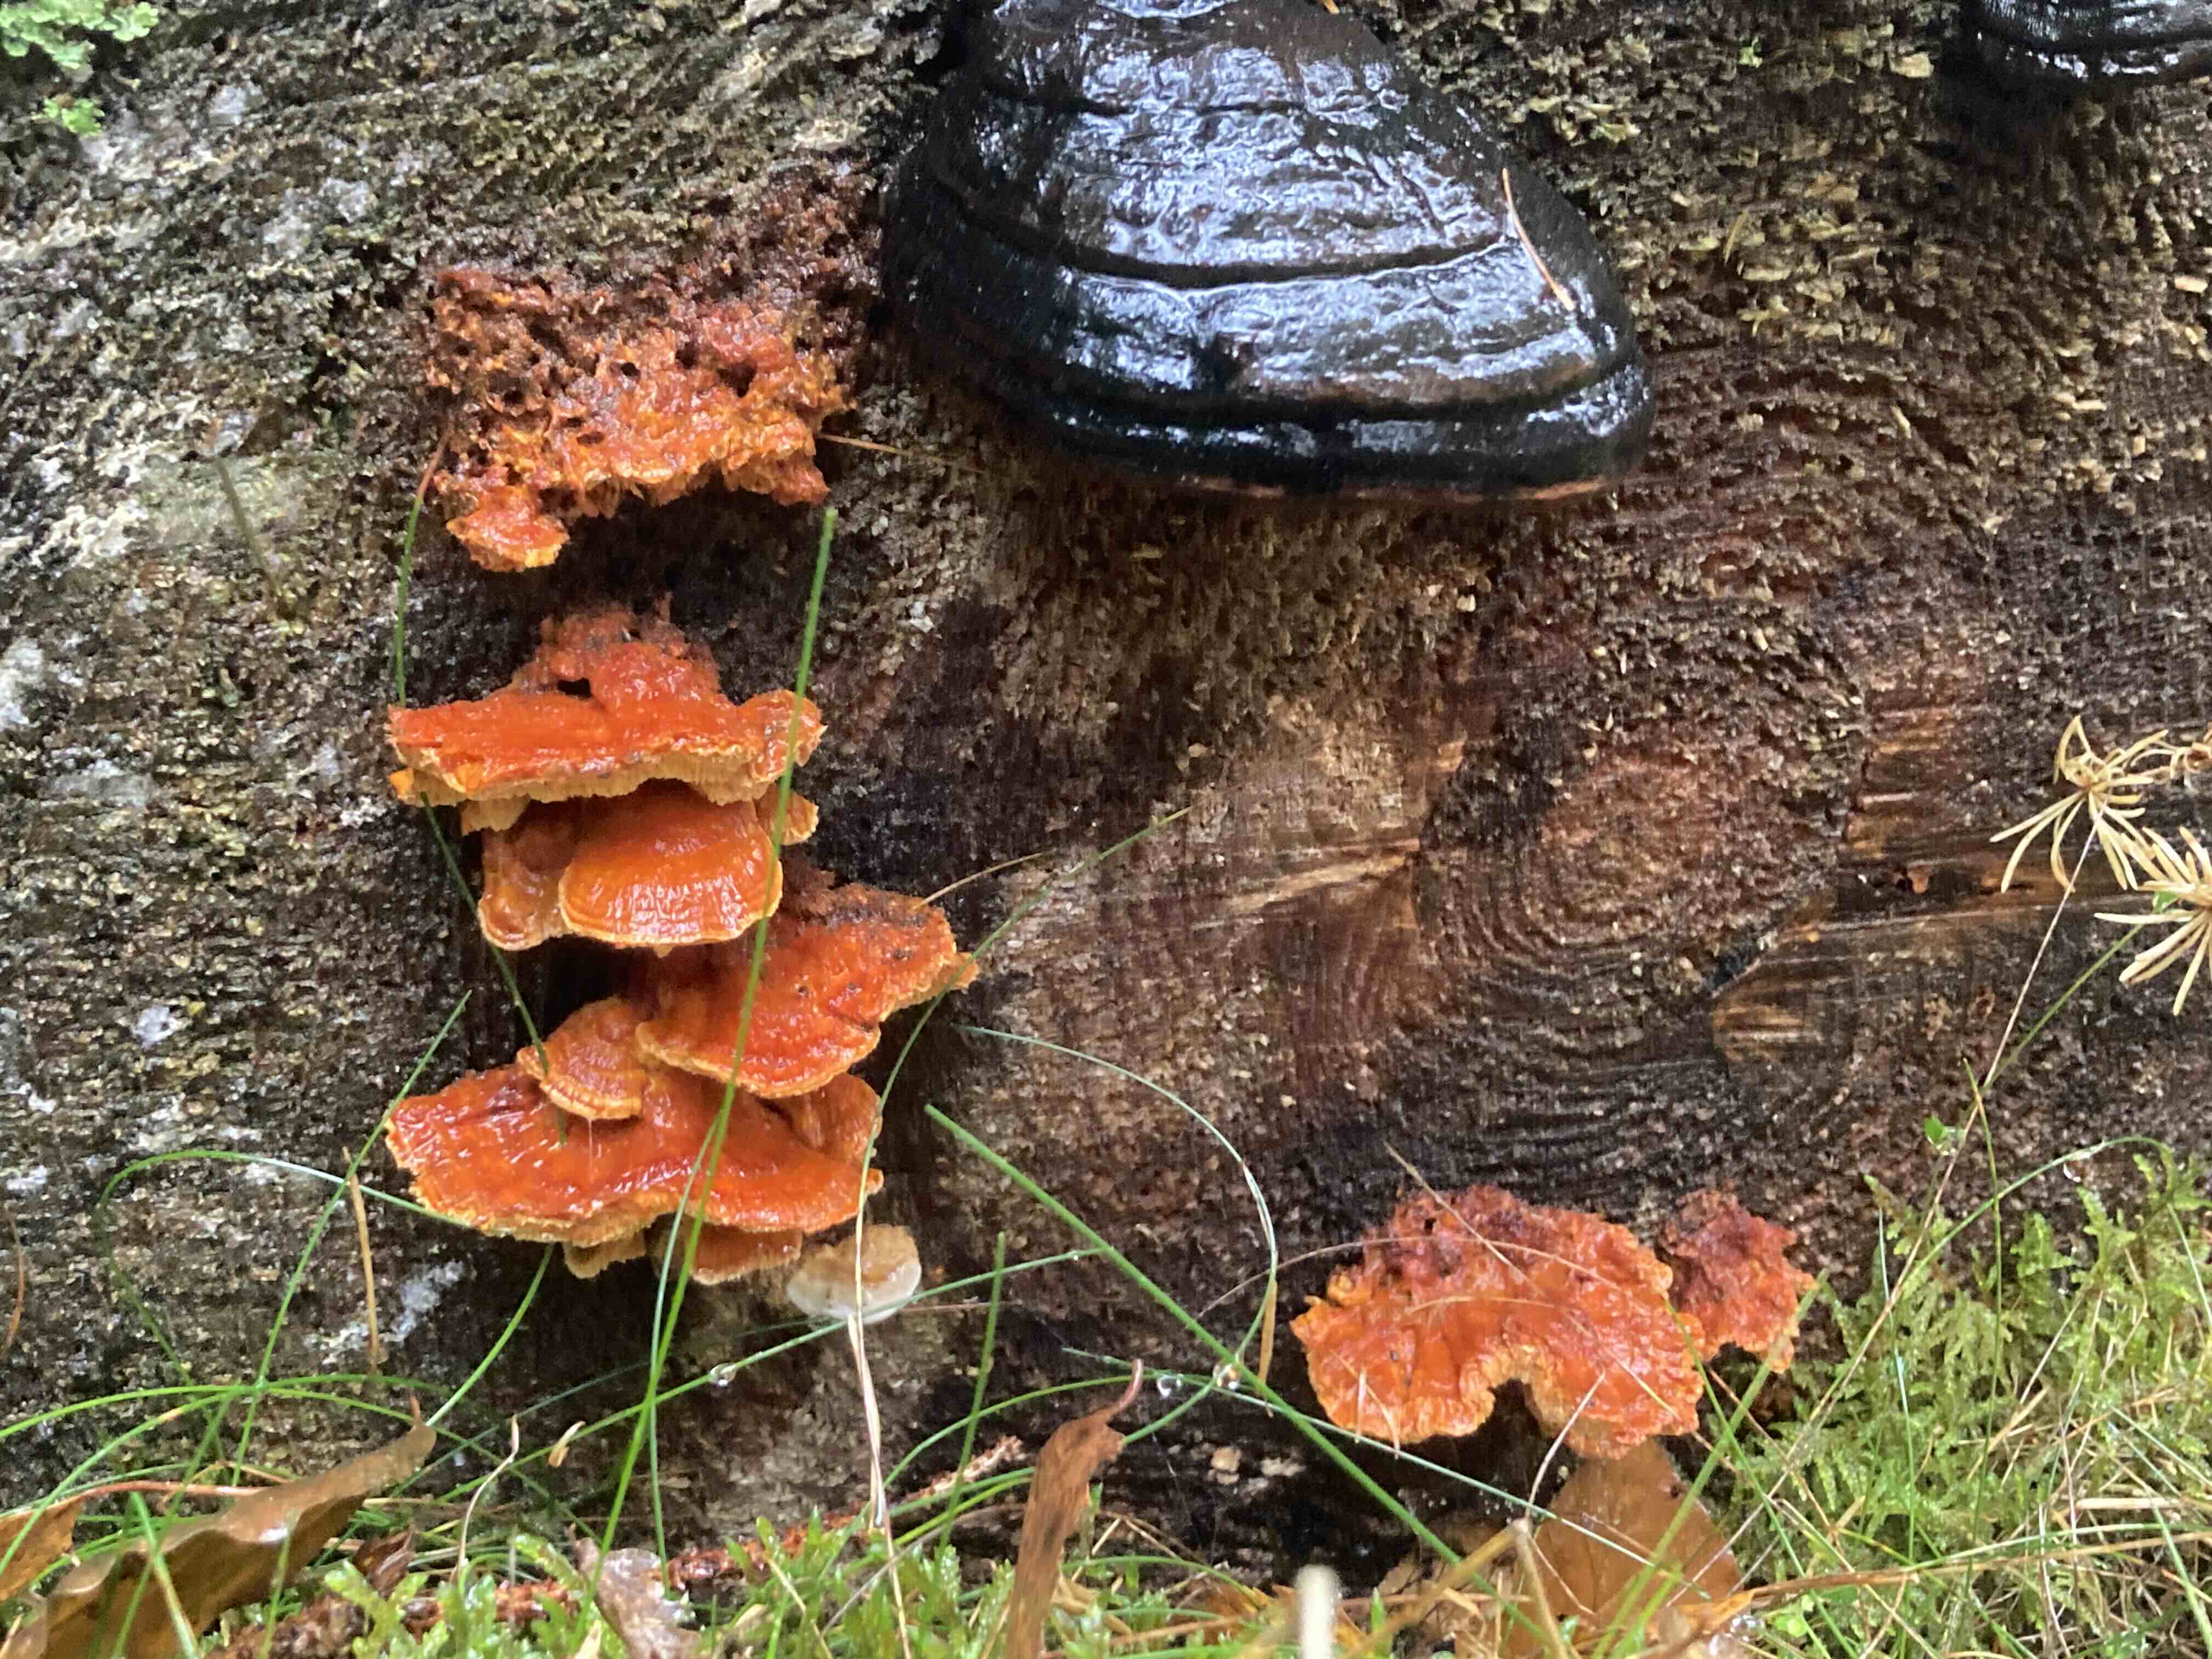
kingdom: Fungi
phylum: Basidiomycota
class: Agaricomycetes
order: Polyporales
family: Pycnoporellaceae
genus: Pycnoporellus
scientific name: Pycnoporellus fulgens
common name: flammeporesvamp
